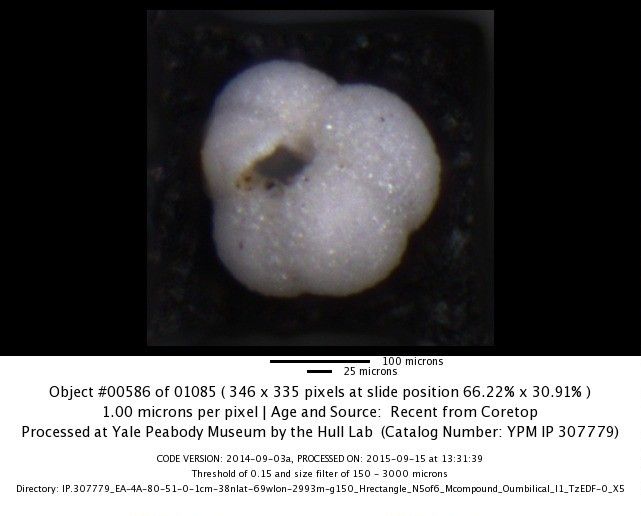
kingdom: Chromista
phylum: Foraminifera
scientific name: Foraminifera
